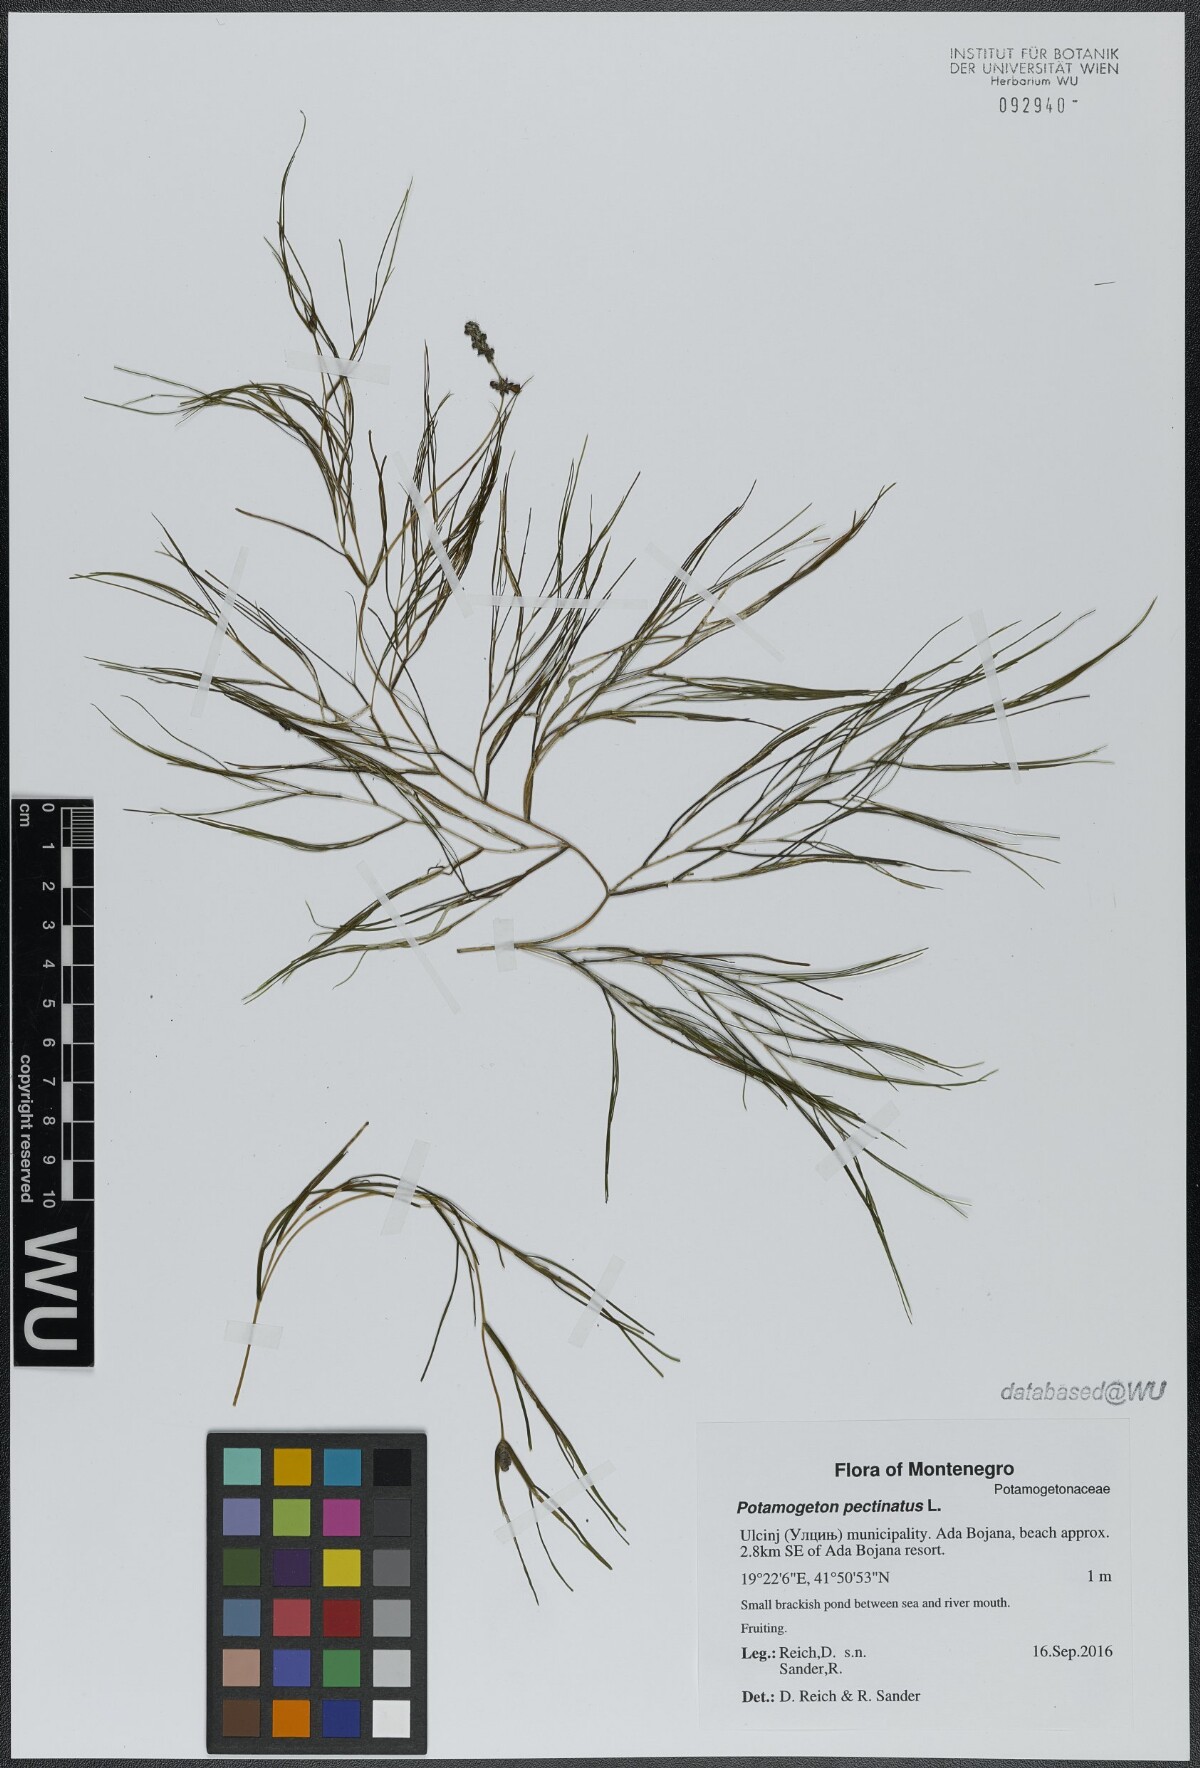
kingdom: Plantae
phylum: Tracheophyta
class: Liliopsida
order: Alismatales
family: Potamogetonaceae
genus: Stuckenia
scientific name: Stuckenia pectinata
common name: Sago pondweed
